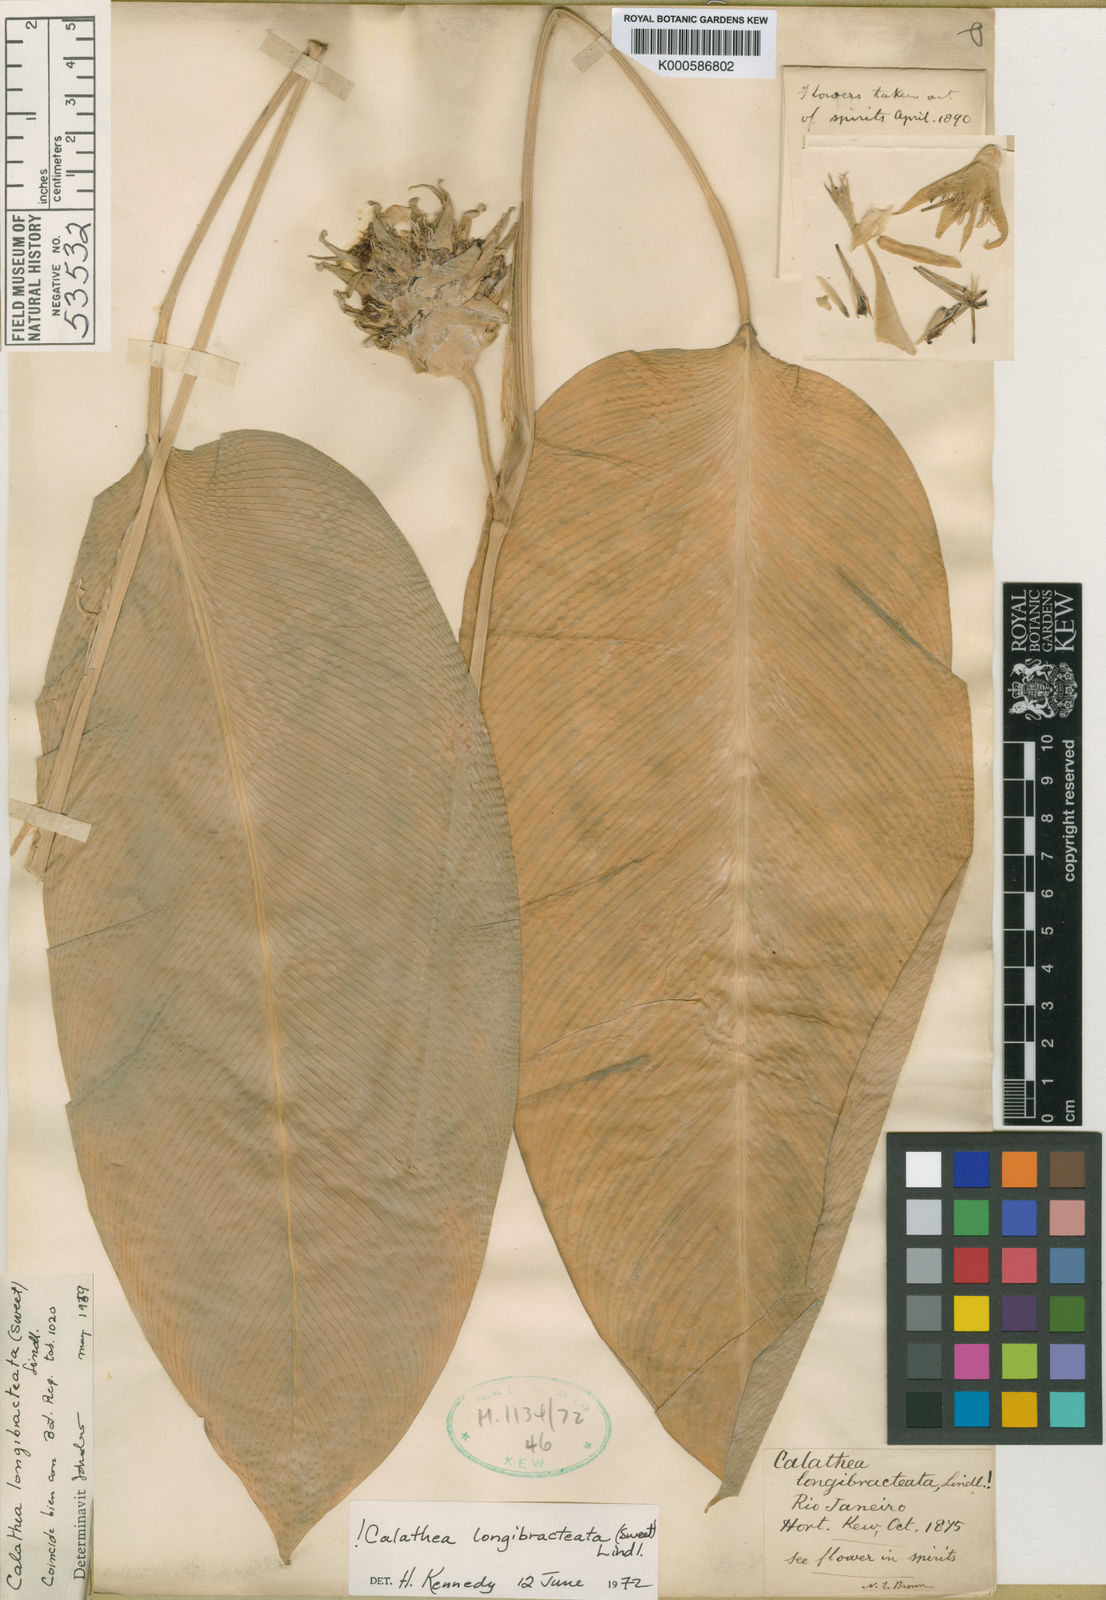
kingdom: Plantae
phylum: Tracheophyta
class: Liliopsida
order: Zingiberales
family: Marantaceae
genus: Goeppertia
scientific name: Goeppertia longibracteata
